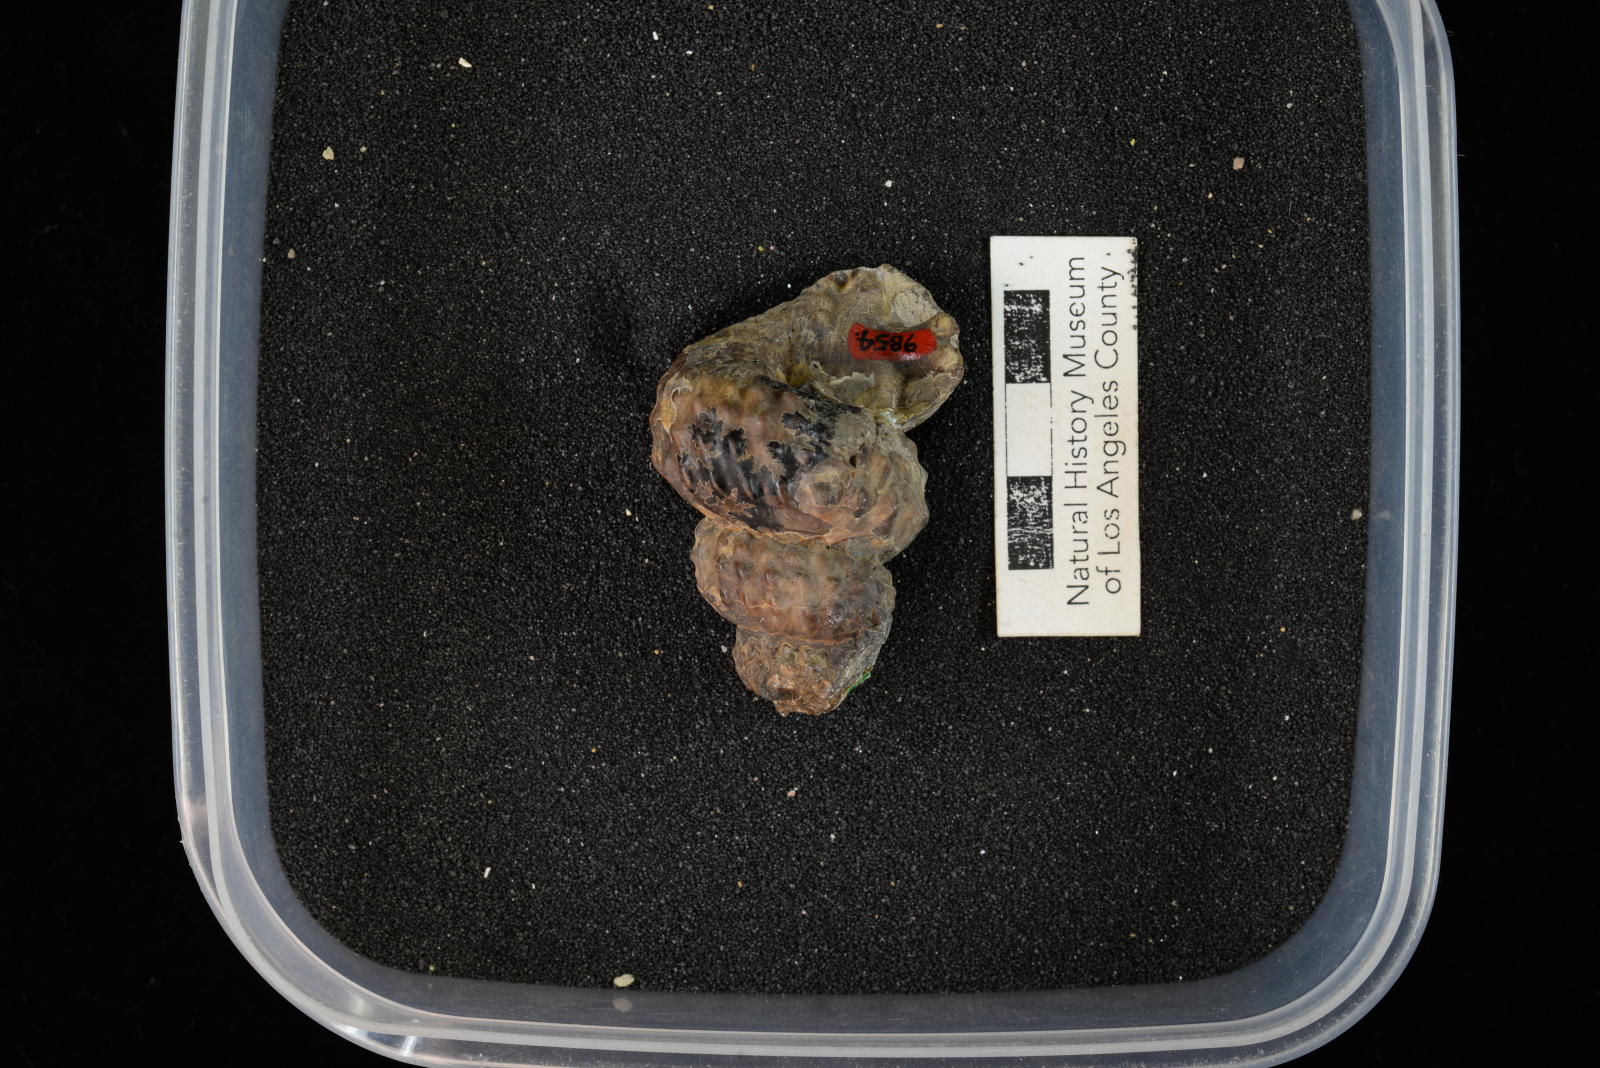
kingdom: Animalia
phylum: Mollusca
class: Cephalopoda
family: Turrilitidae
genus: Mariella
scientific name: Mariella fricki
